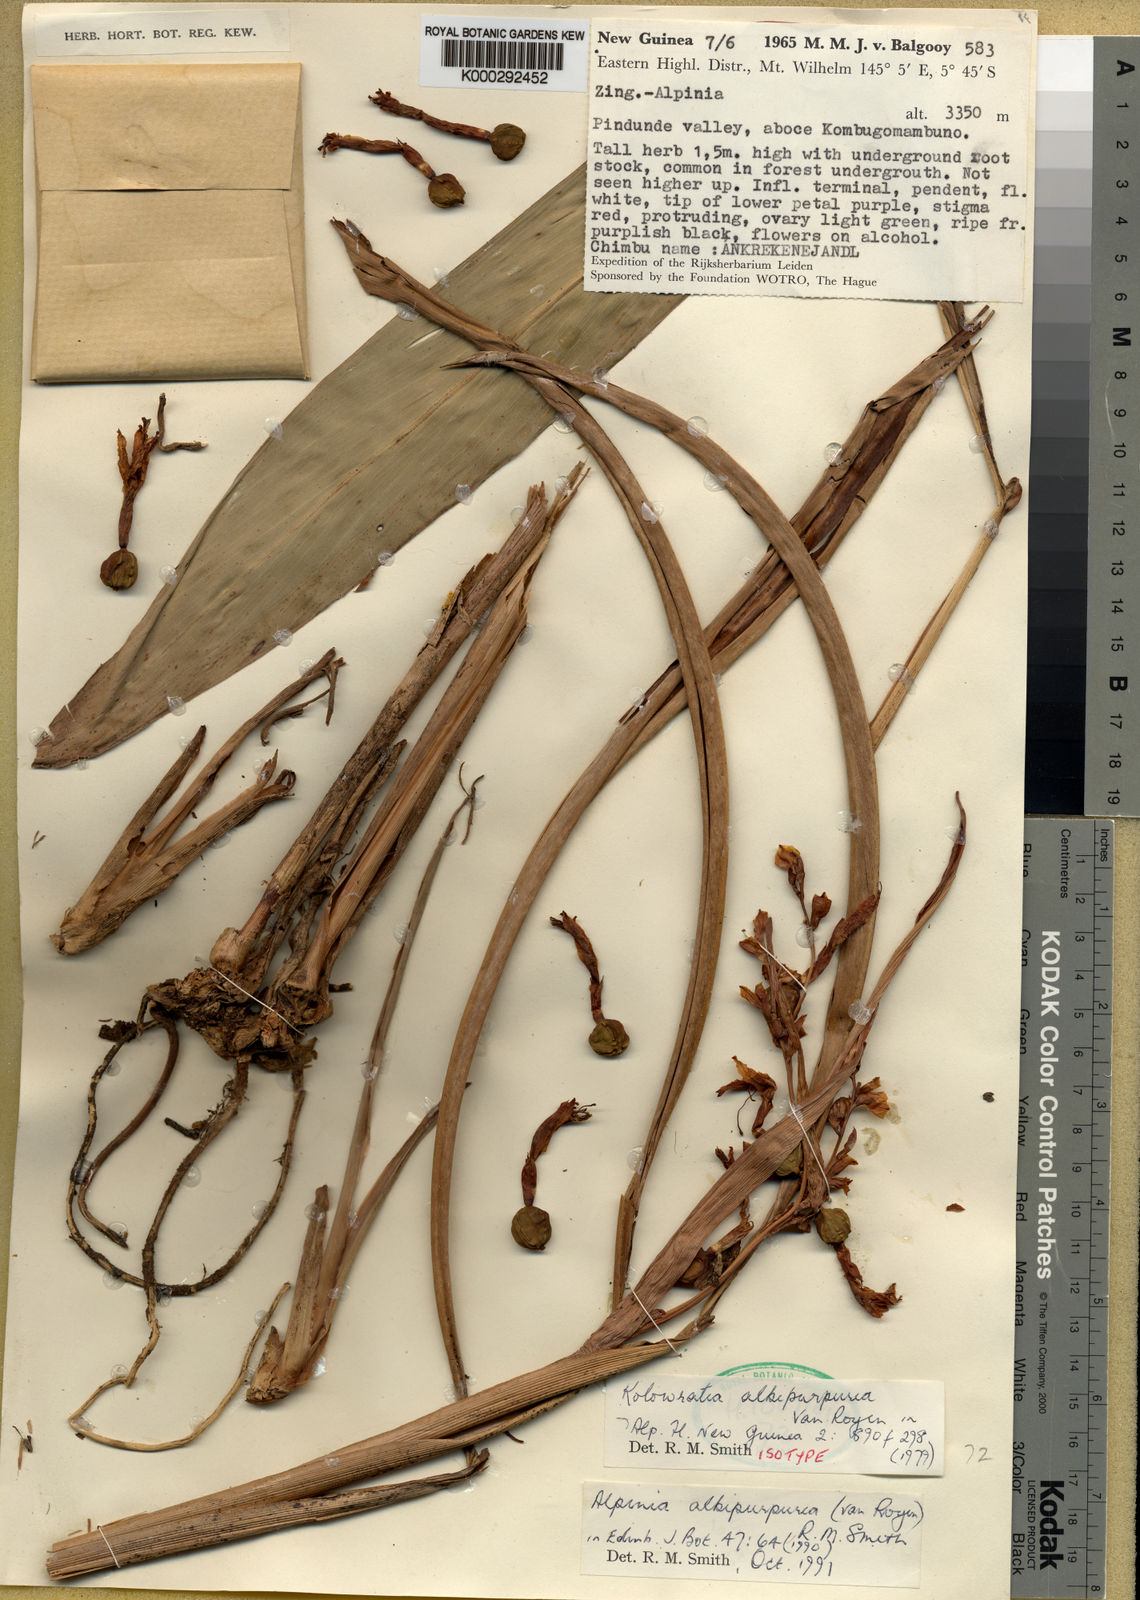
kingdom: Plantae
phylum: Tracheophyta
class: Liliopsida
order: Zingiberales
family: Zingiberaceae
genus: Alpinia
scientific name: Alpinia albipurpurea
